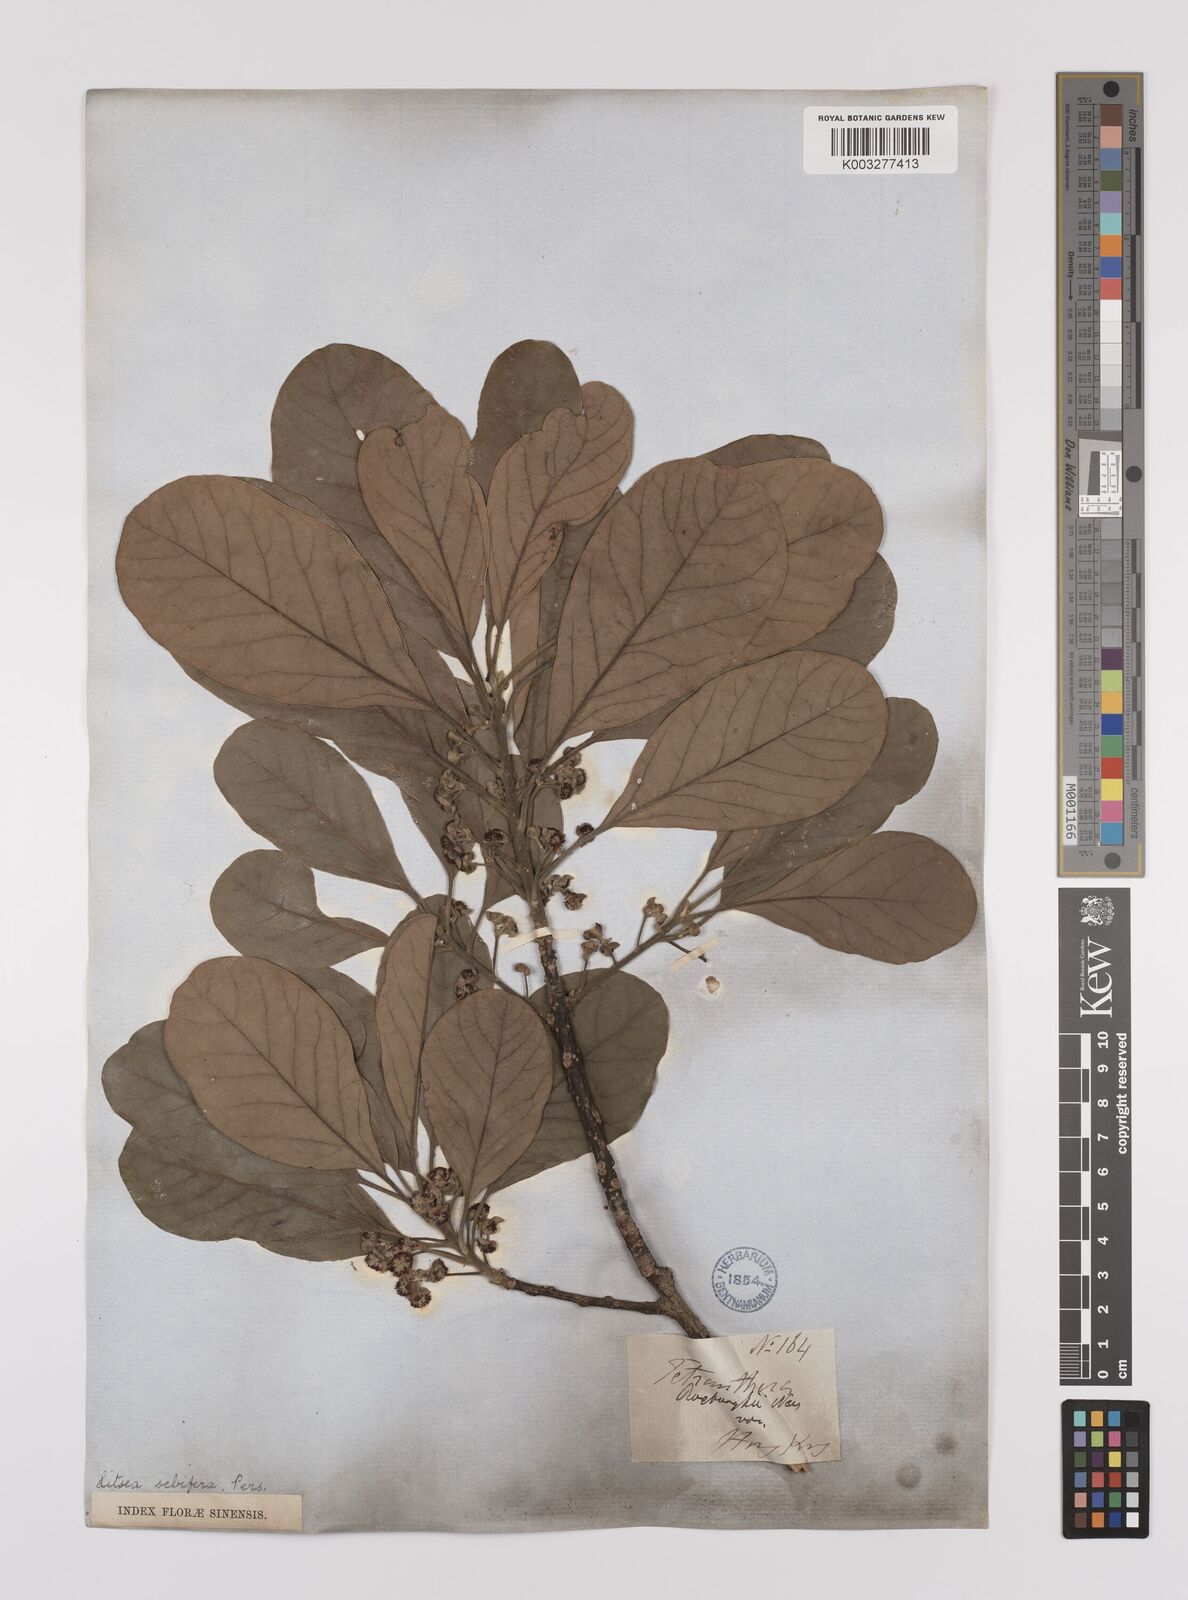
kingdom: Plantae
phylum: Tracheophyta
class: Magnoliopsida
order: Laurales
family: Lauraceae
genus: Litsea
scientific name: Litsea glutinosa
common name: Indian-laurel
